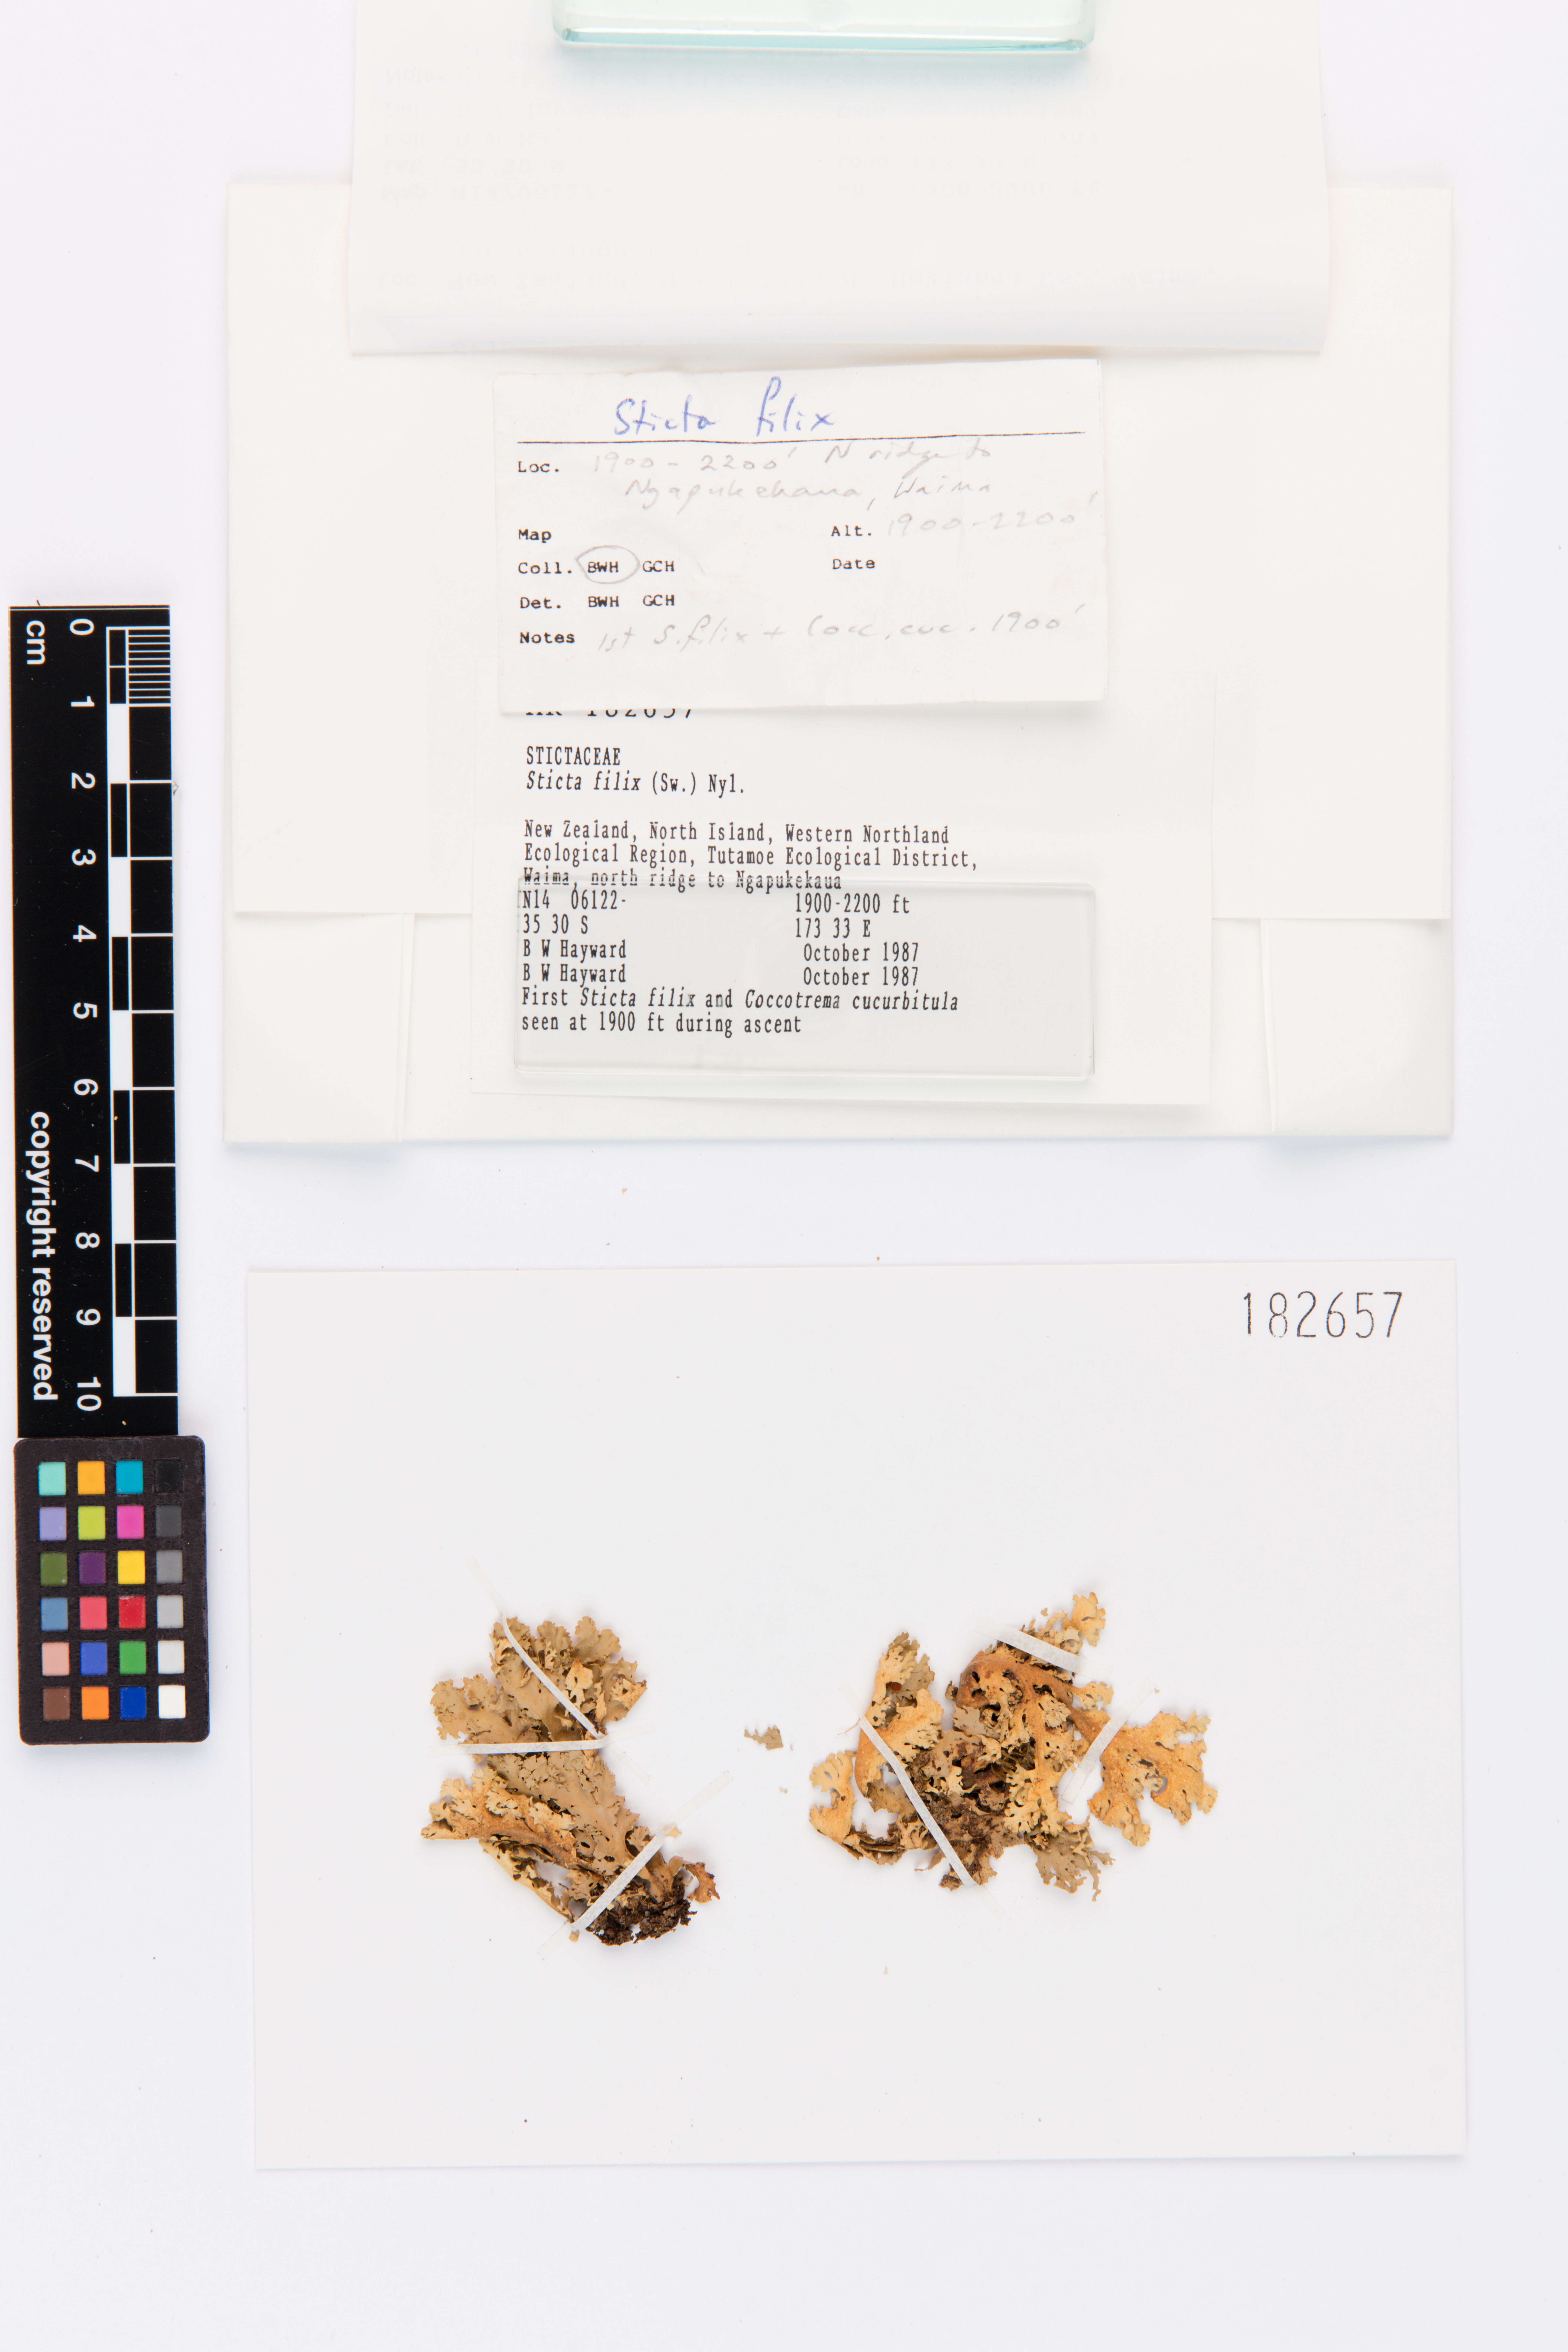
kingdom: Fungi
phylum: Ascomycota
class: Lecanoromycetes
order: Peltigerales
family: Lobariaceae
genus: Sticta
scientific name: Sticta filix
